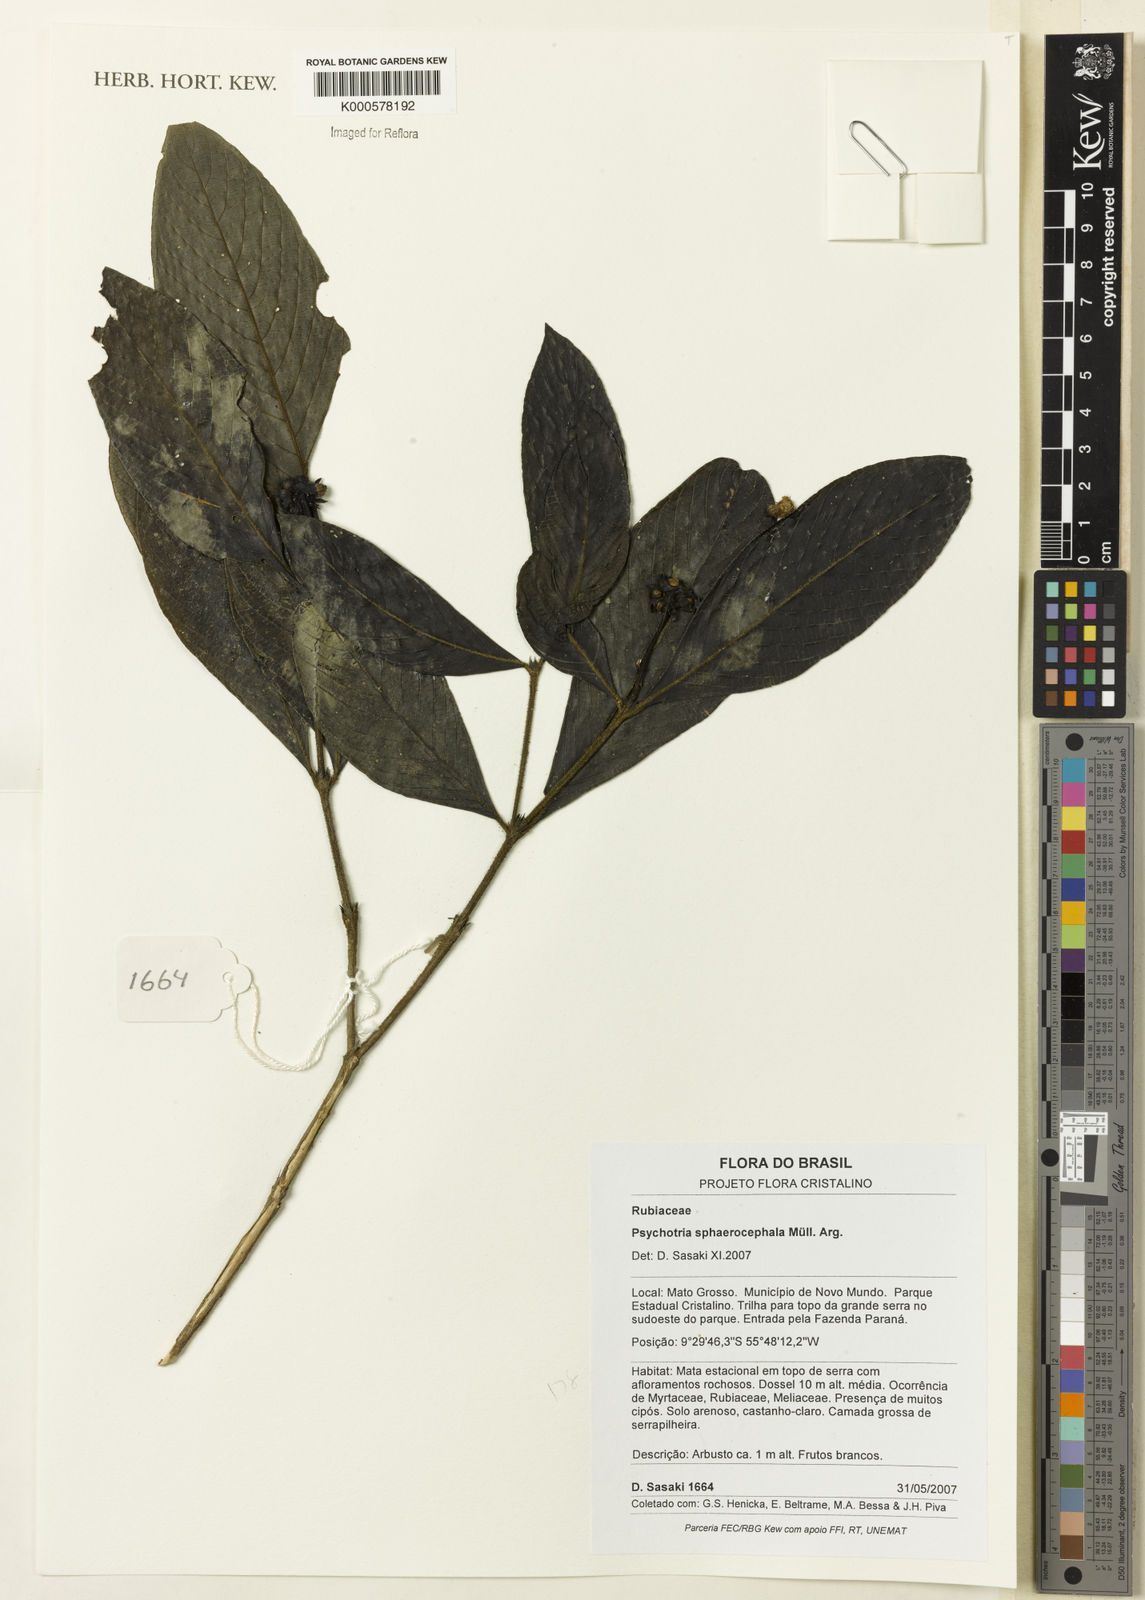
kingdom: Plantae
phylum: Tracheophyta
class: Magnoliopsida
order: Gentianales
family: Rubiaceae
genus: Psychotria
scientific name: Psychotria
